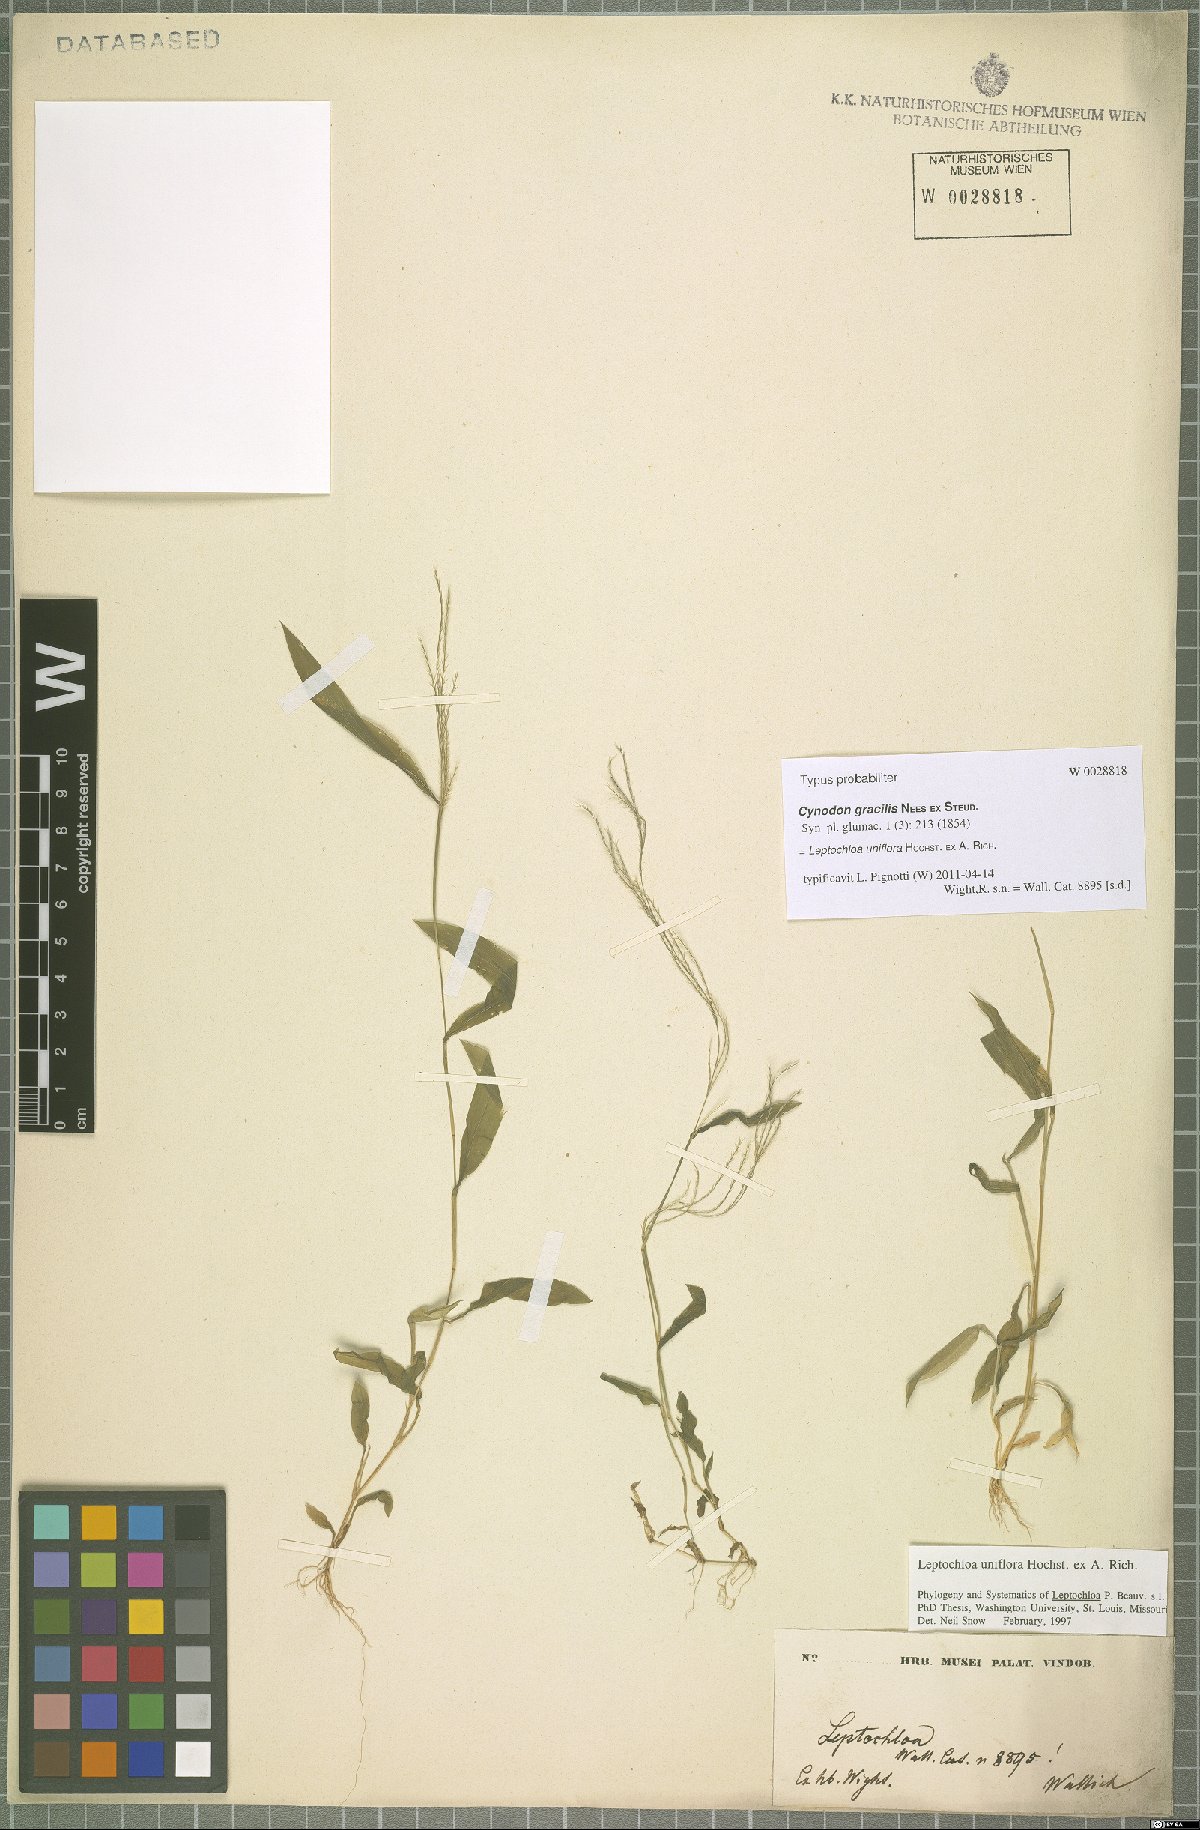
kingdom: Plantae
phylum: Tracheophyta
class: Liliopsida
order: Poales
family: Poaceae
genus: Trigonochloa
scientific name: Trigonochloa uniflora
